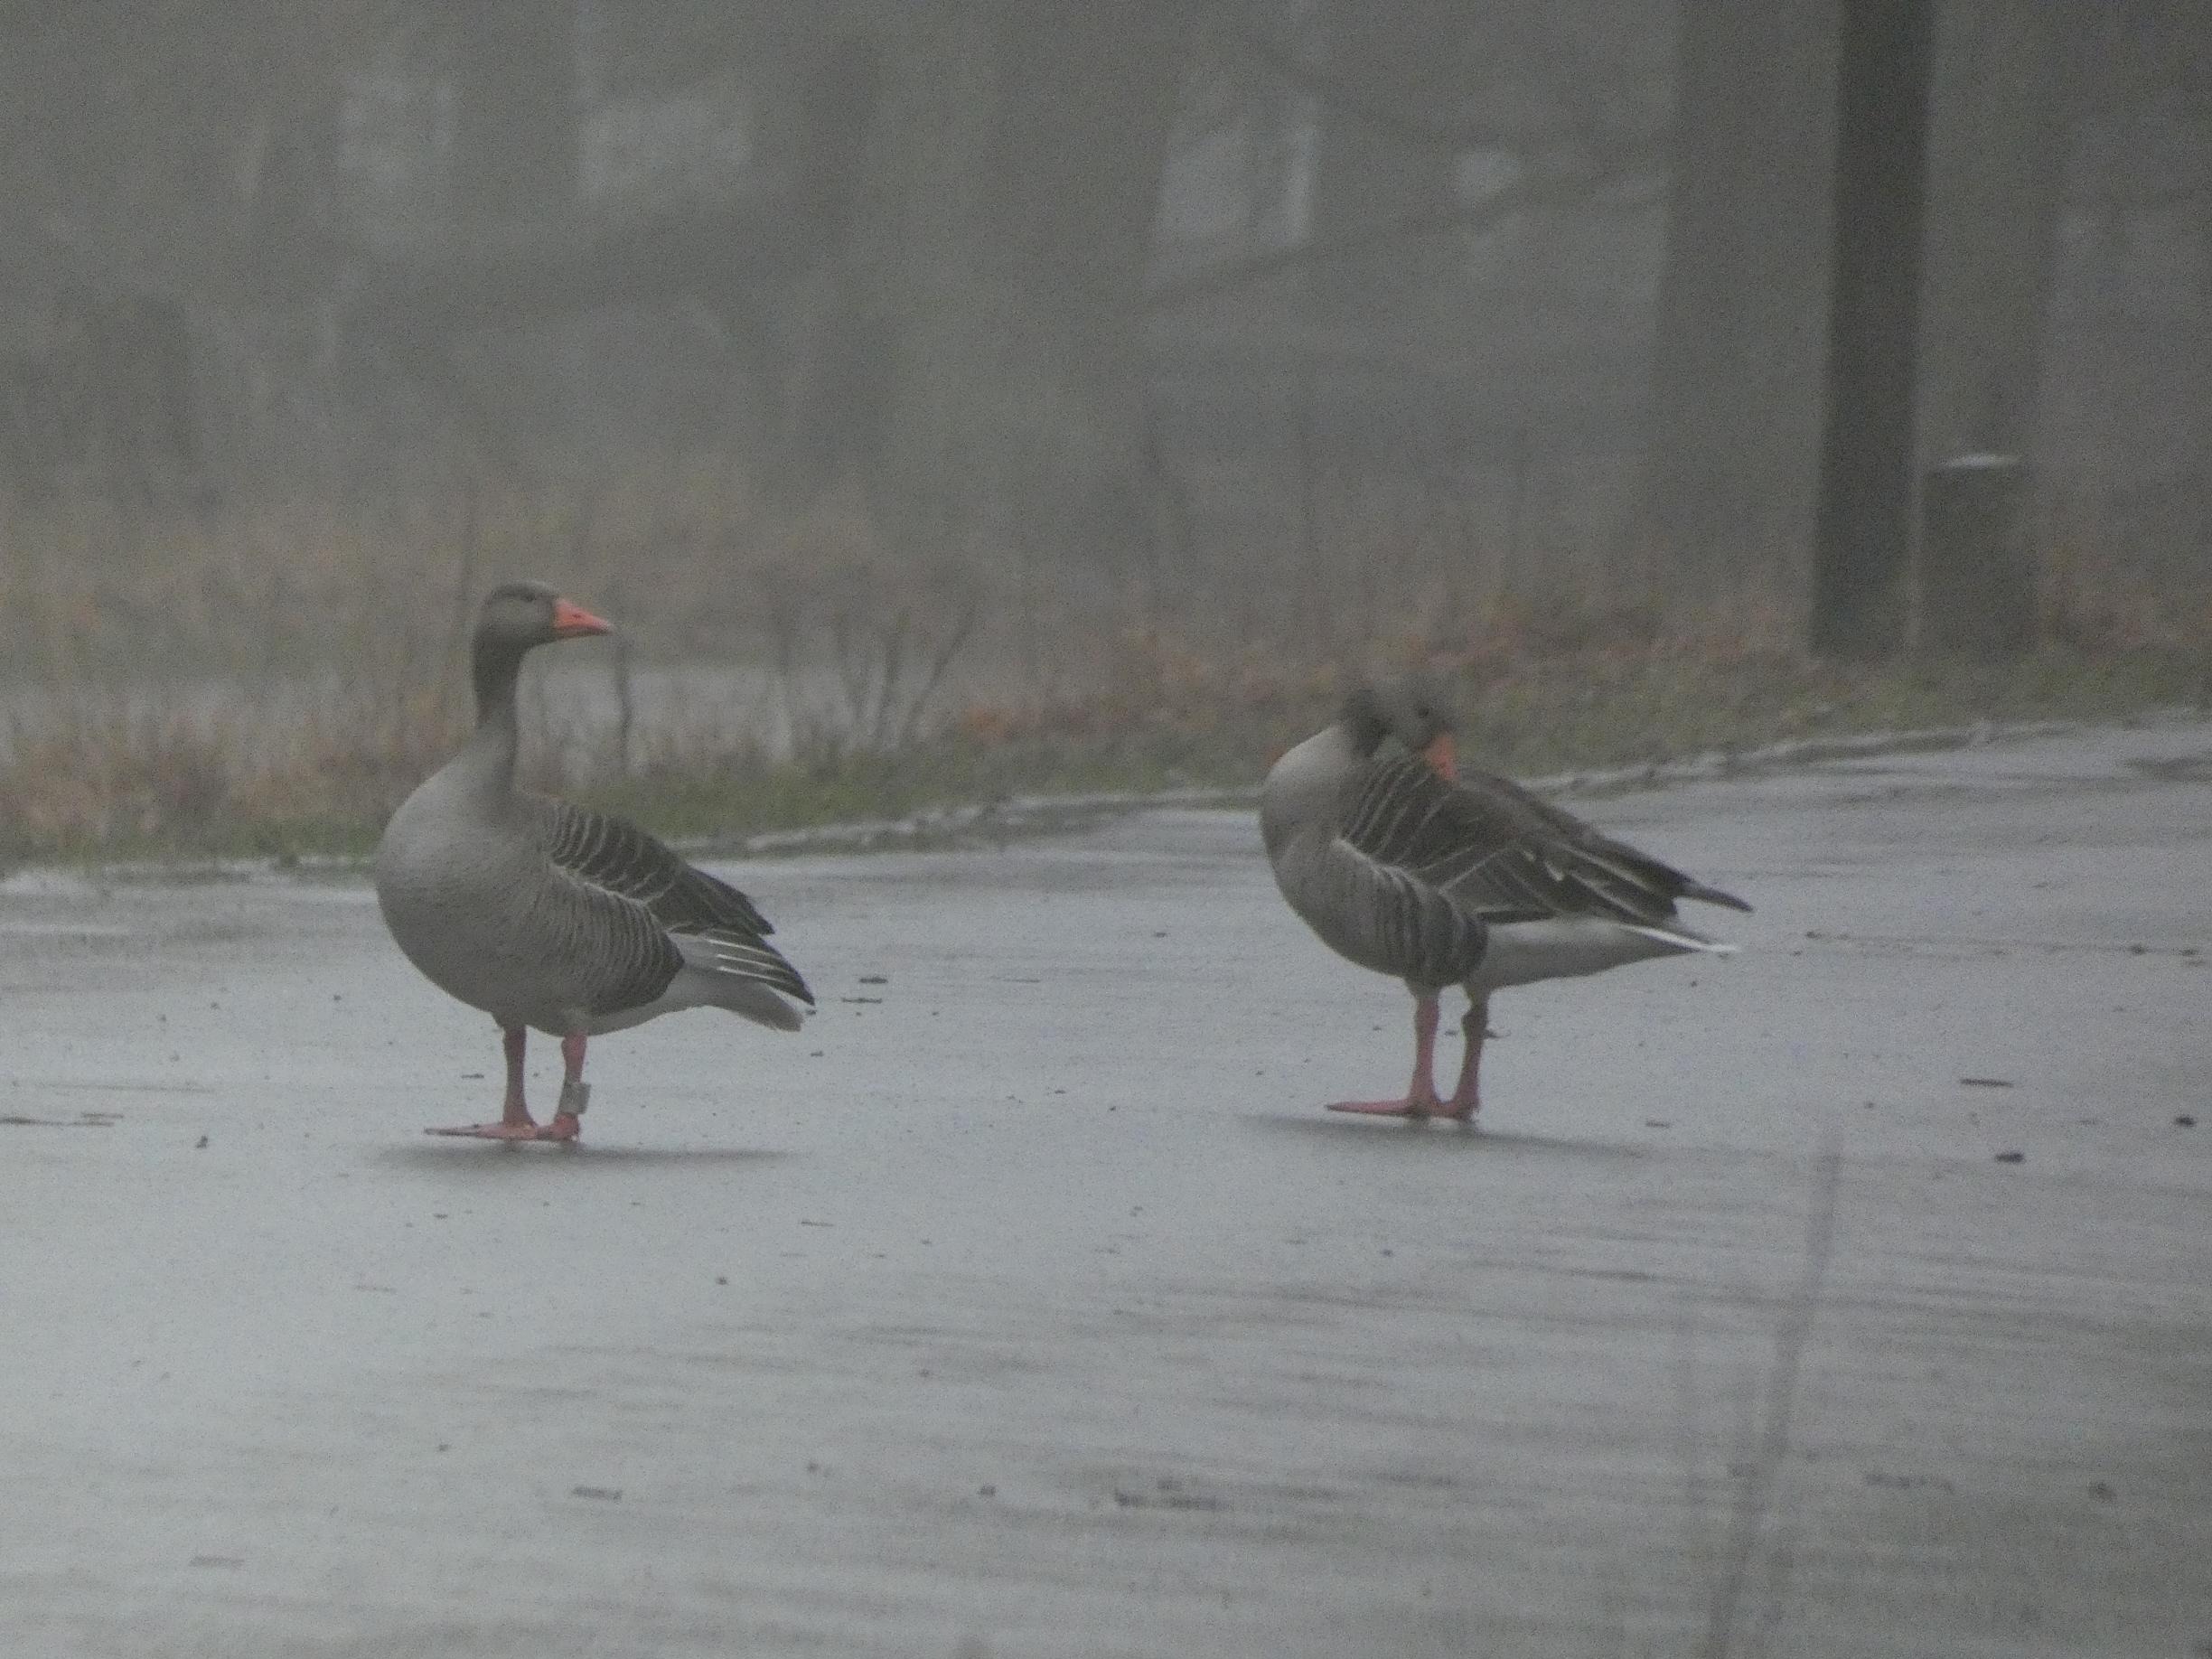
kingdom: Animalia
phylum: Chordata
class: Aves
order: Anseriformes
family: Anatidae
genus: Anser
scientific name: Anser anser
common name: Grågås
